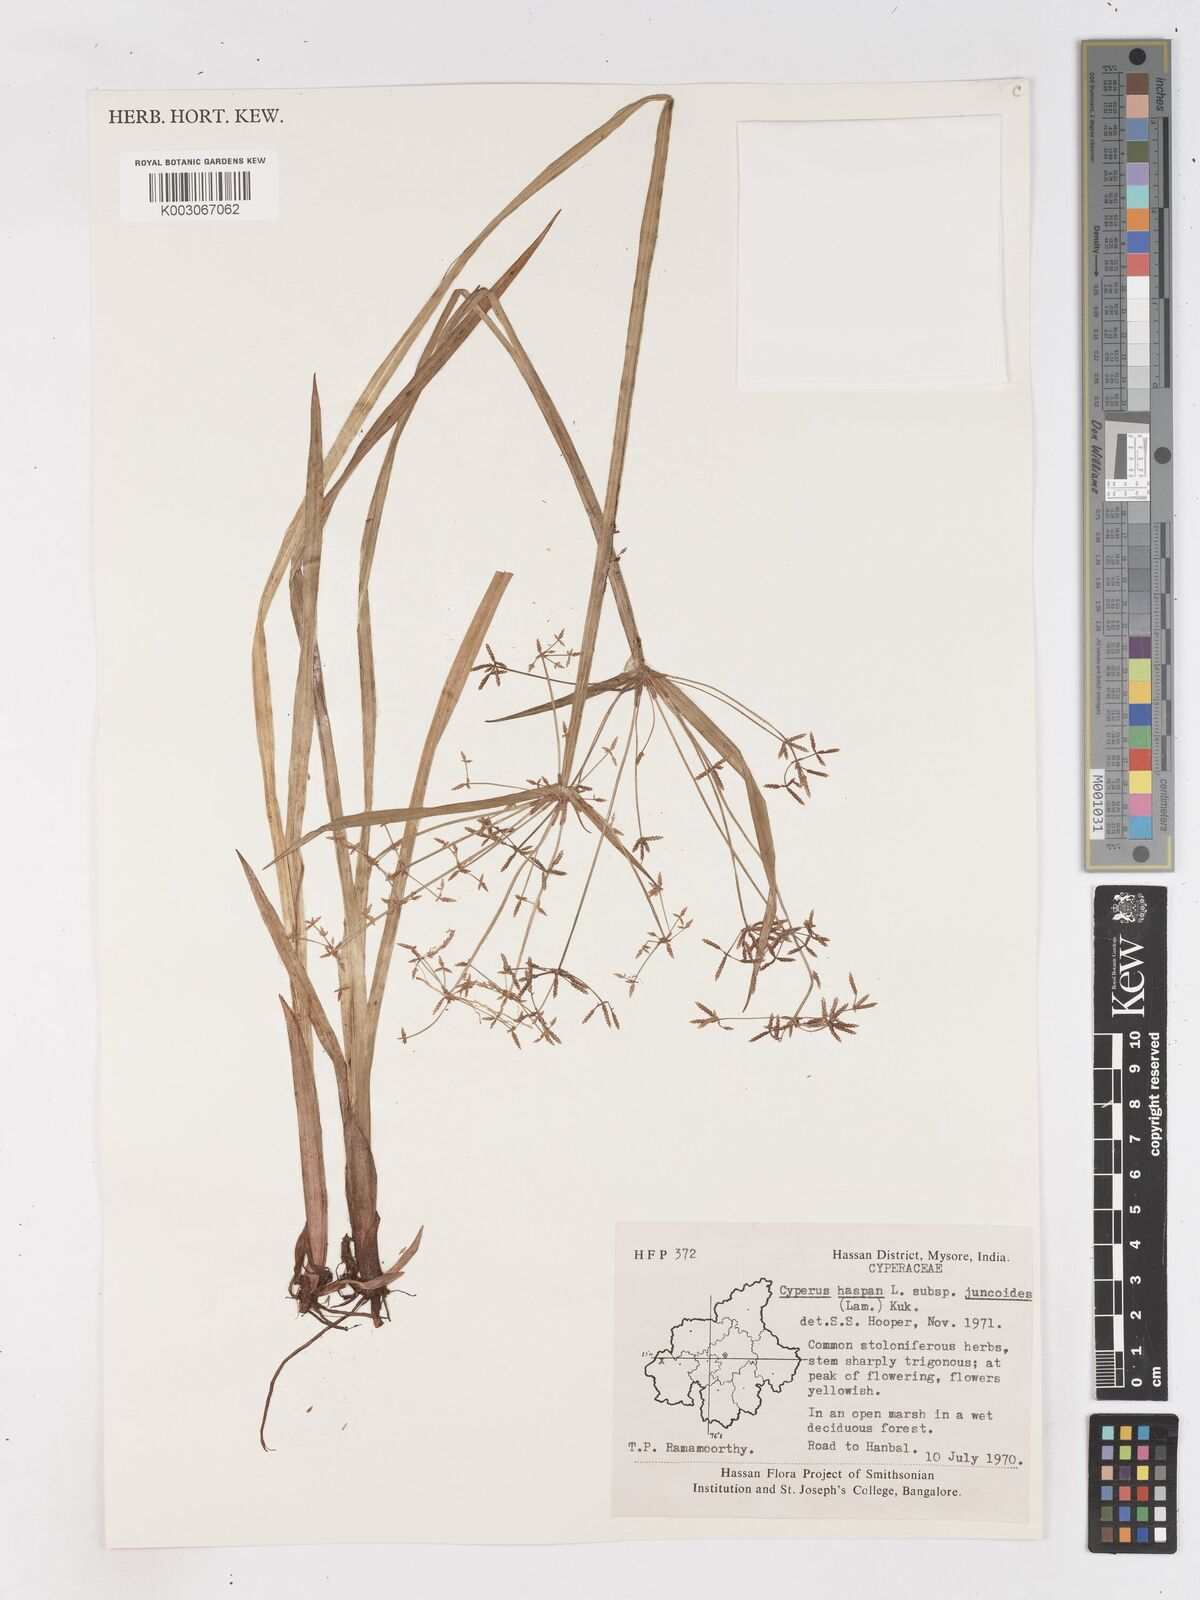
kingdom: Plantae
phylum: Tracheophyta
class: Liliopsida
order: Poales
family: Cyperaceae
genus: Cyperus
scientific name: Cyperus haspan
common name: Haspan flatsedge
